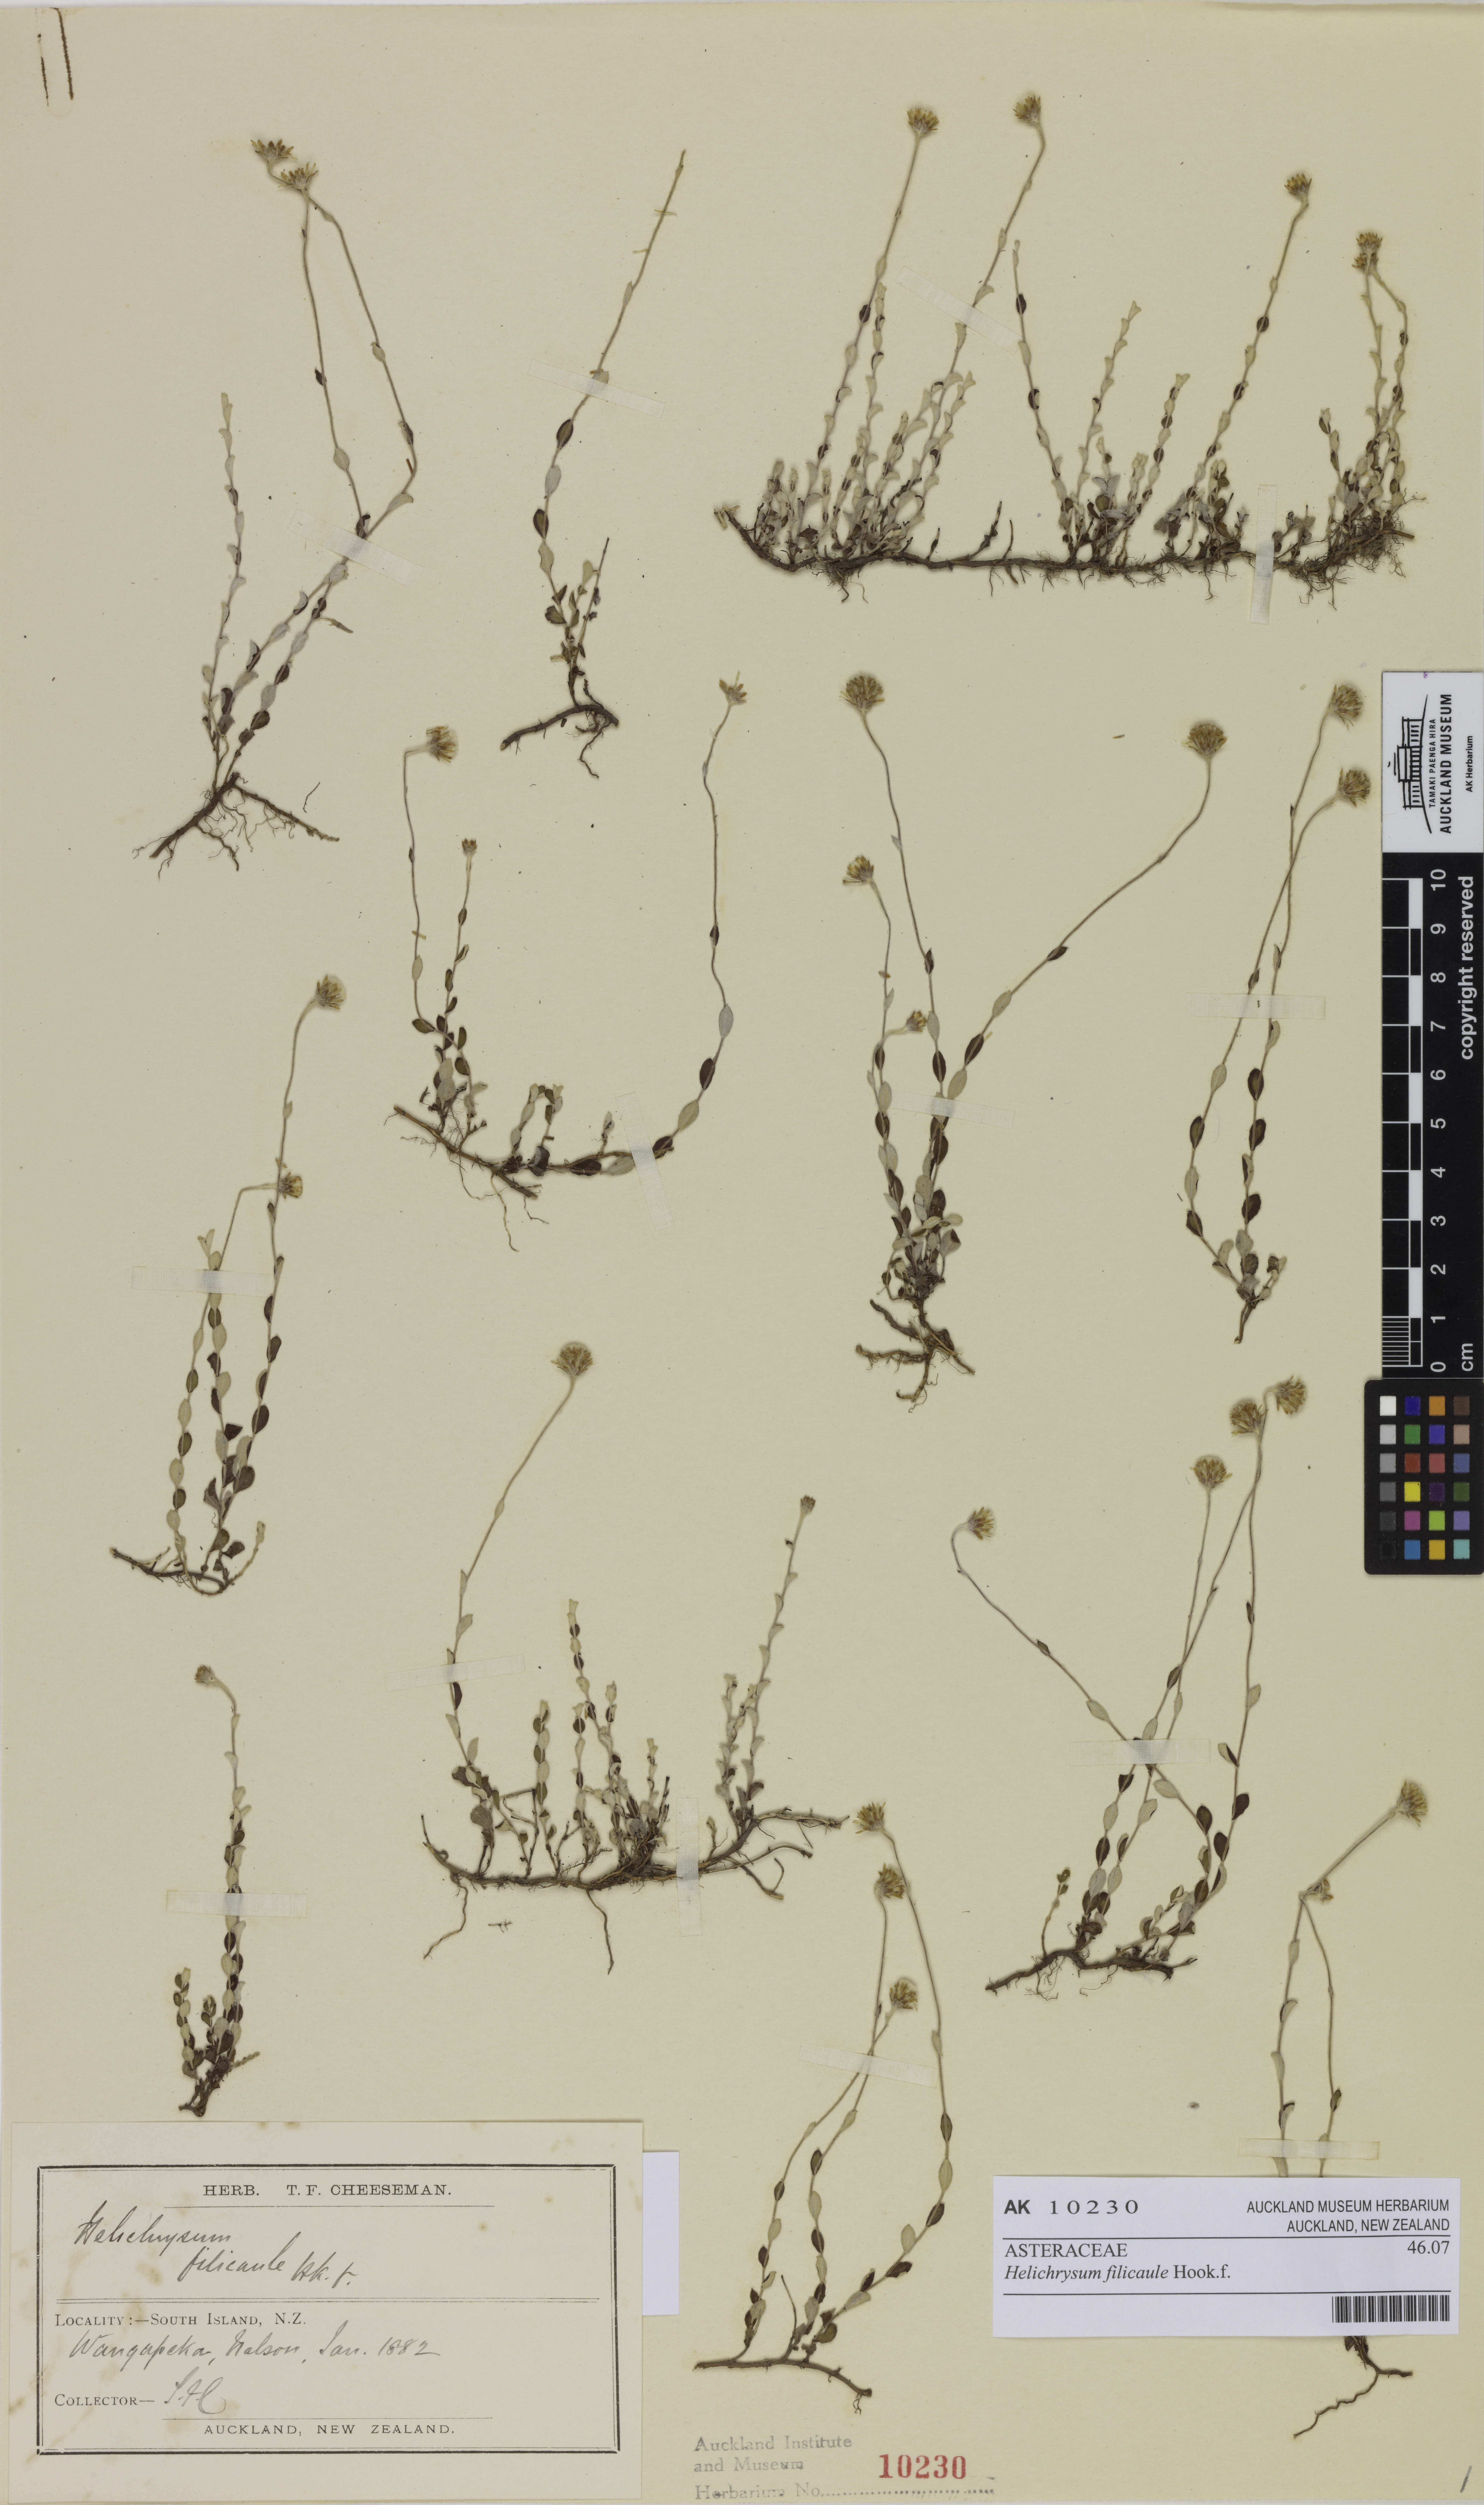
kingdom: Plantae
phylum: Tracheophyta
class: Magnoliopsida
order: Asterales
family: Asteraceae
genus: Helichrysum
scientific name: Helichrysum filicaule
